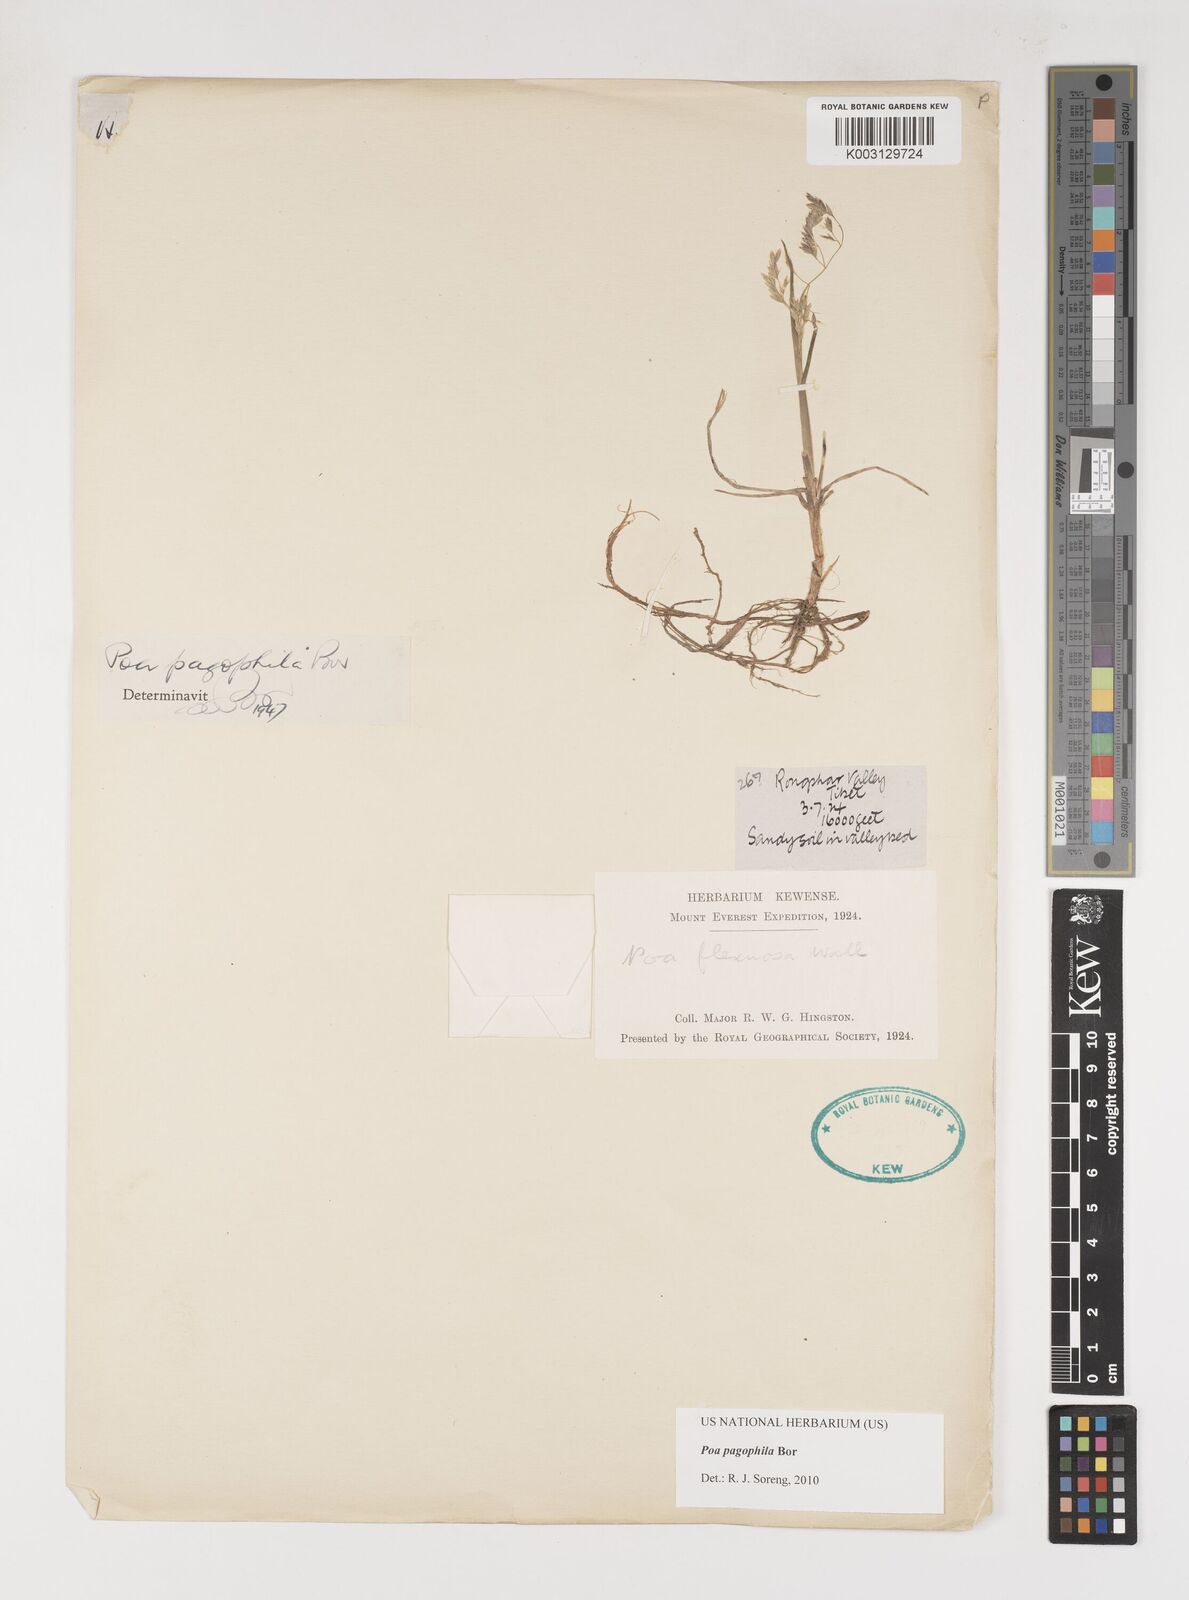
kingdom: Plantae
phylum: Tracheophyta
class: Liliopsida
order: Poales
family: Poaceae
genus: Poa
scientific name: Poa pagophila
